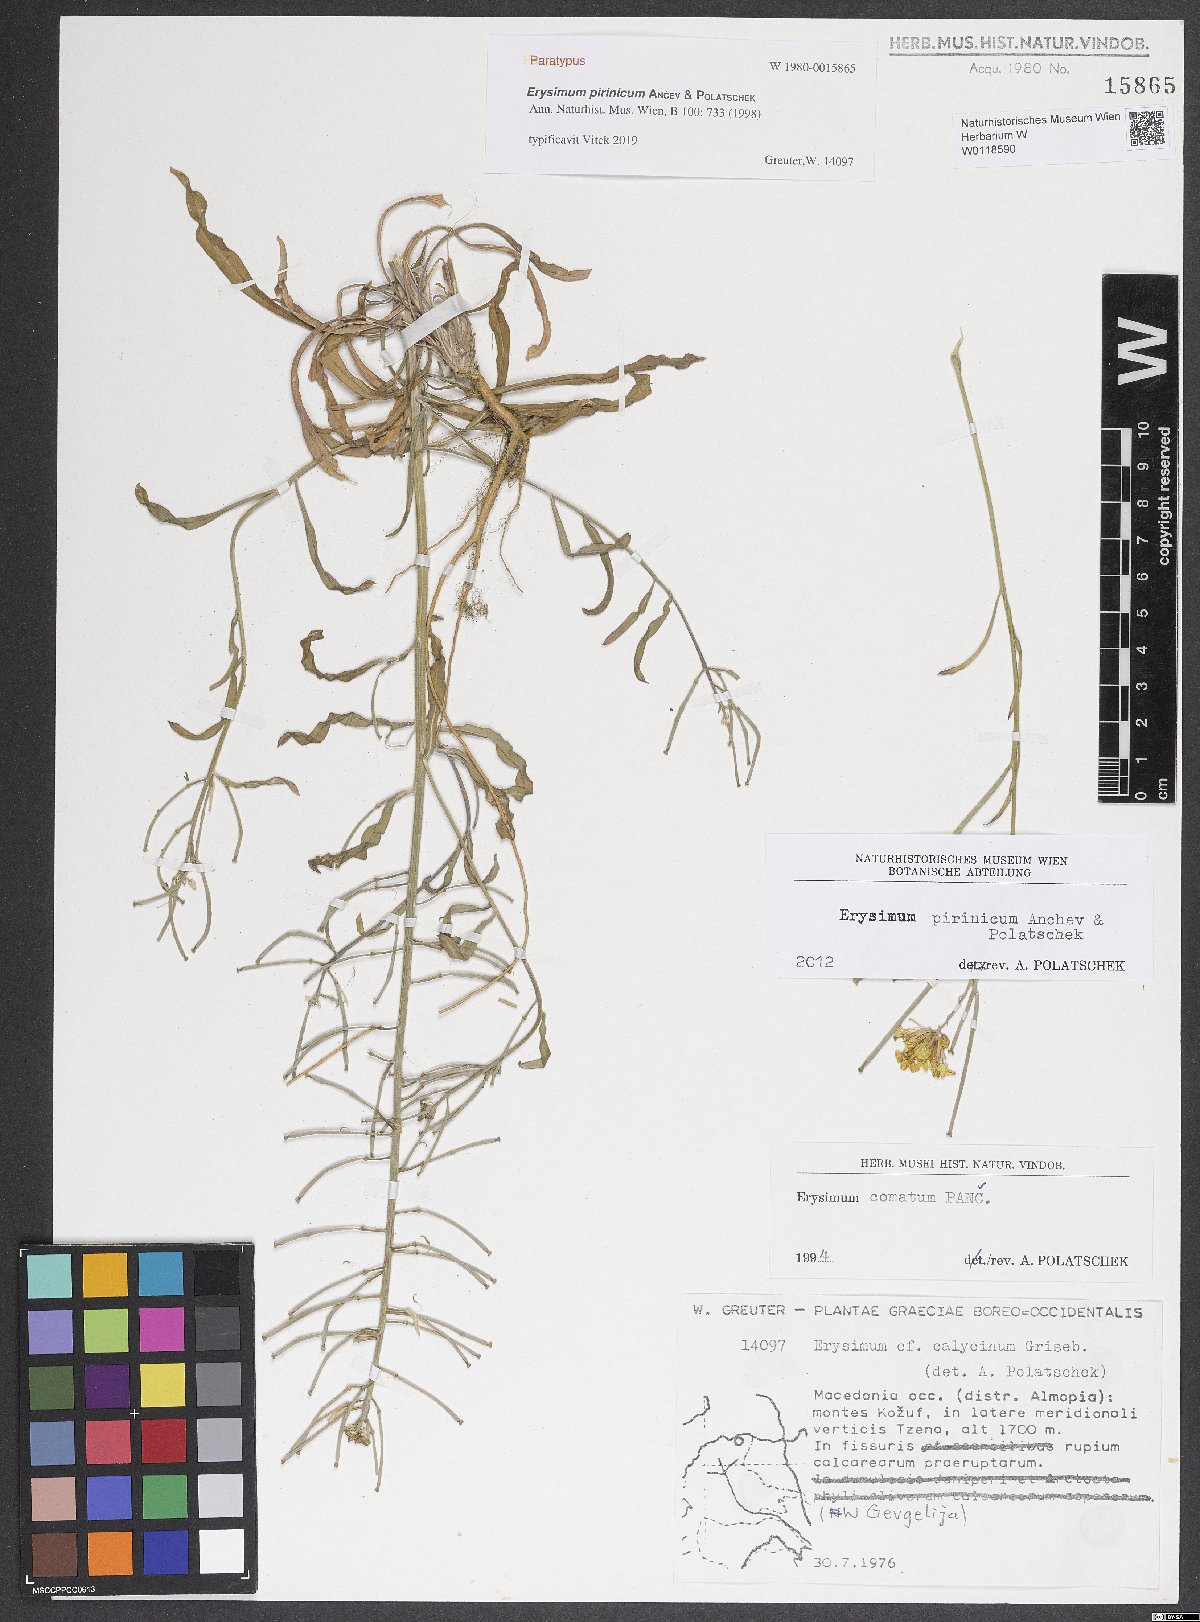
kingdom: Plantae
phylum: Tracheophyta
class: Magnoliopsida
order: Brassicales
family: Brassicaceae
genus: Erysimum
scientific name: Erysimum pirinicum
